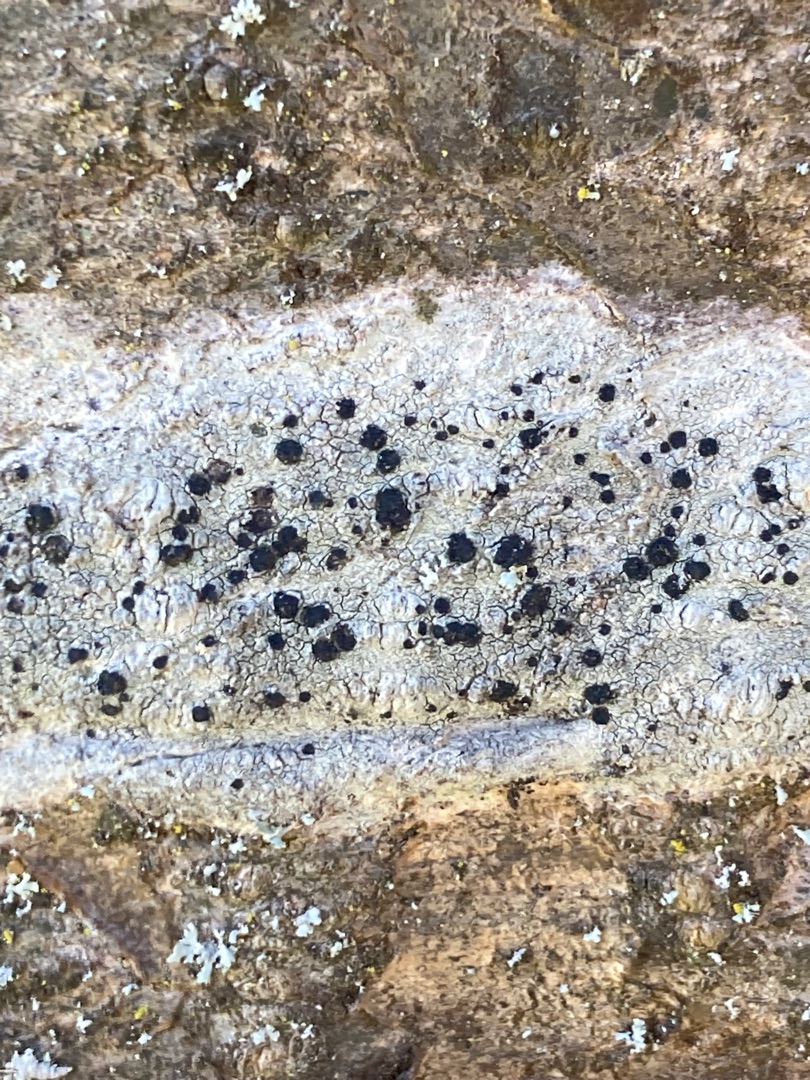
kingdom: Fungi
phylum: Ascomycota
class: Lecanoromycetes
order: Lecanorales
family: Lecanoraceae
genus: Lecidella
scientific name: Lecidella elaeochroma
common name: Grågrøn skivelav
